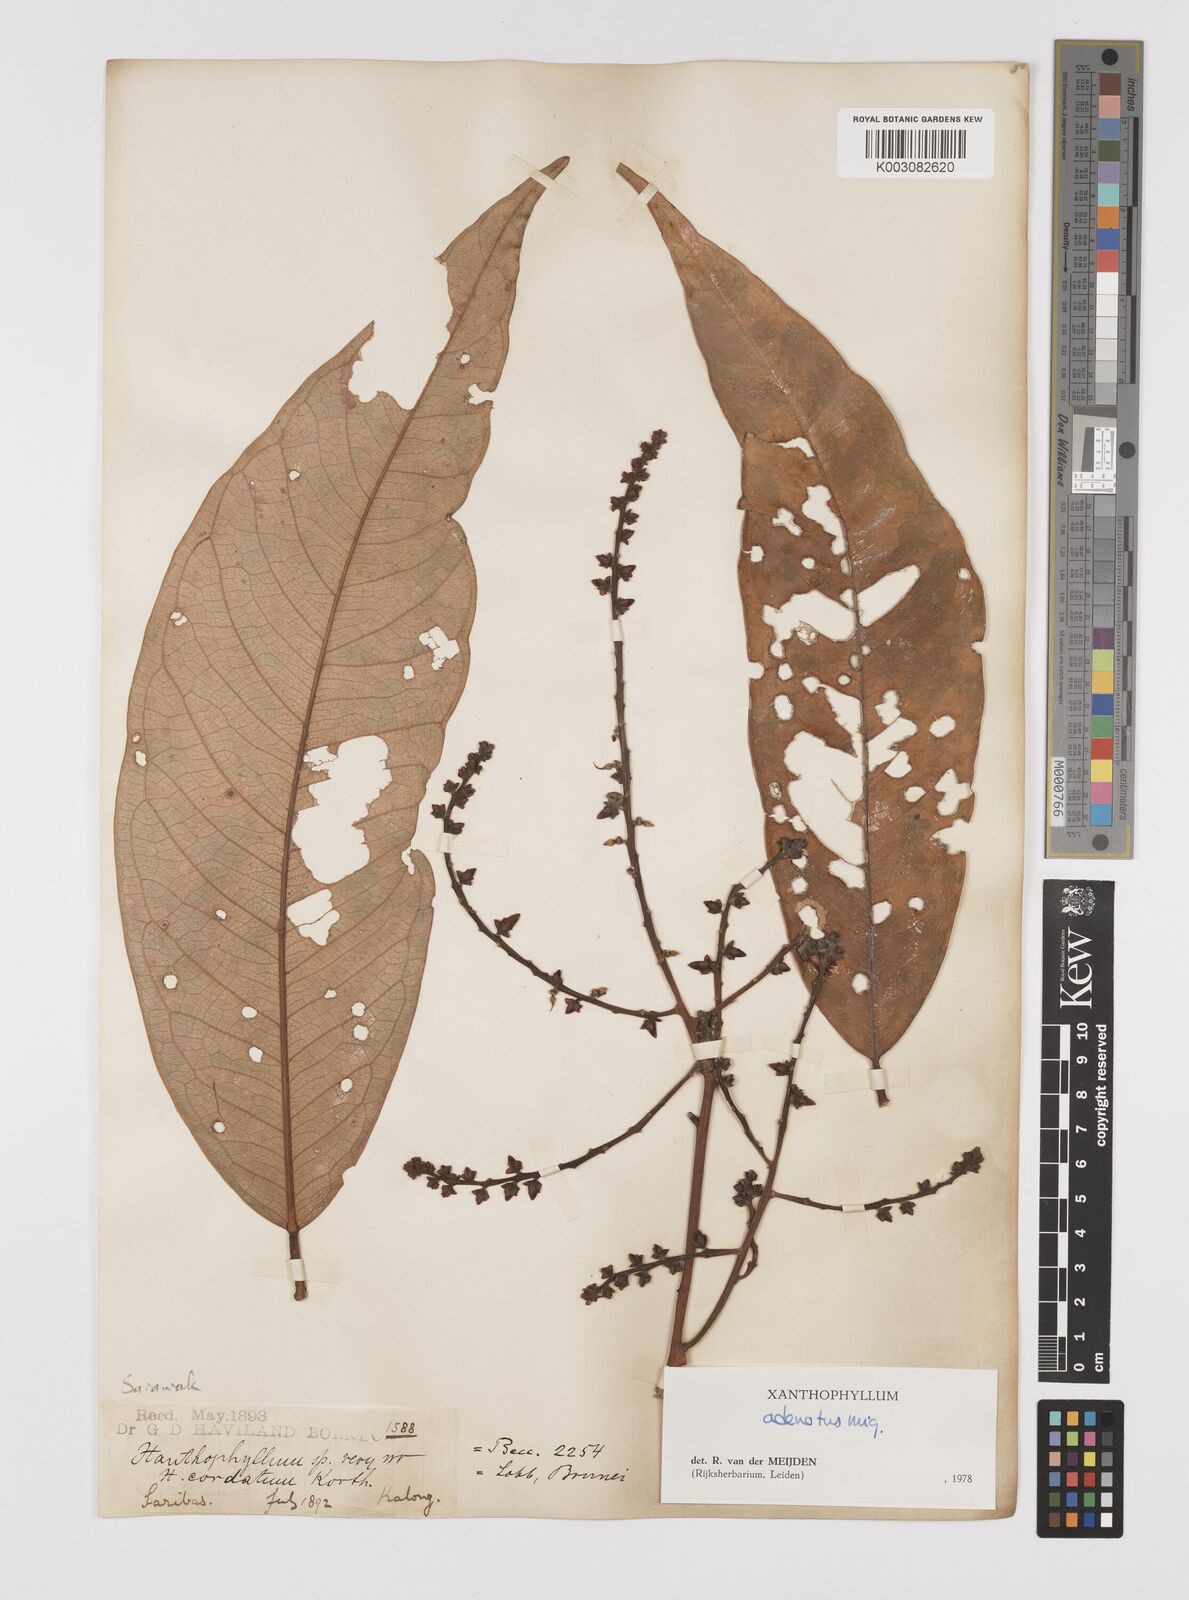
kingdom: Plantae
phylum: Tracheophyta
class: Magnoliopsida
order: Fabales
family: Polygalaceae
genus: Xanthophyllum
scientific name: Xanthophyllum adenotus
